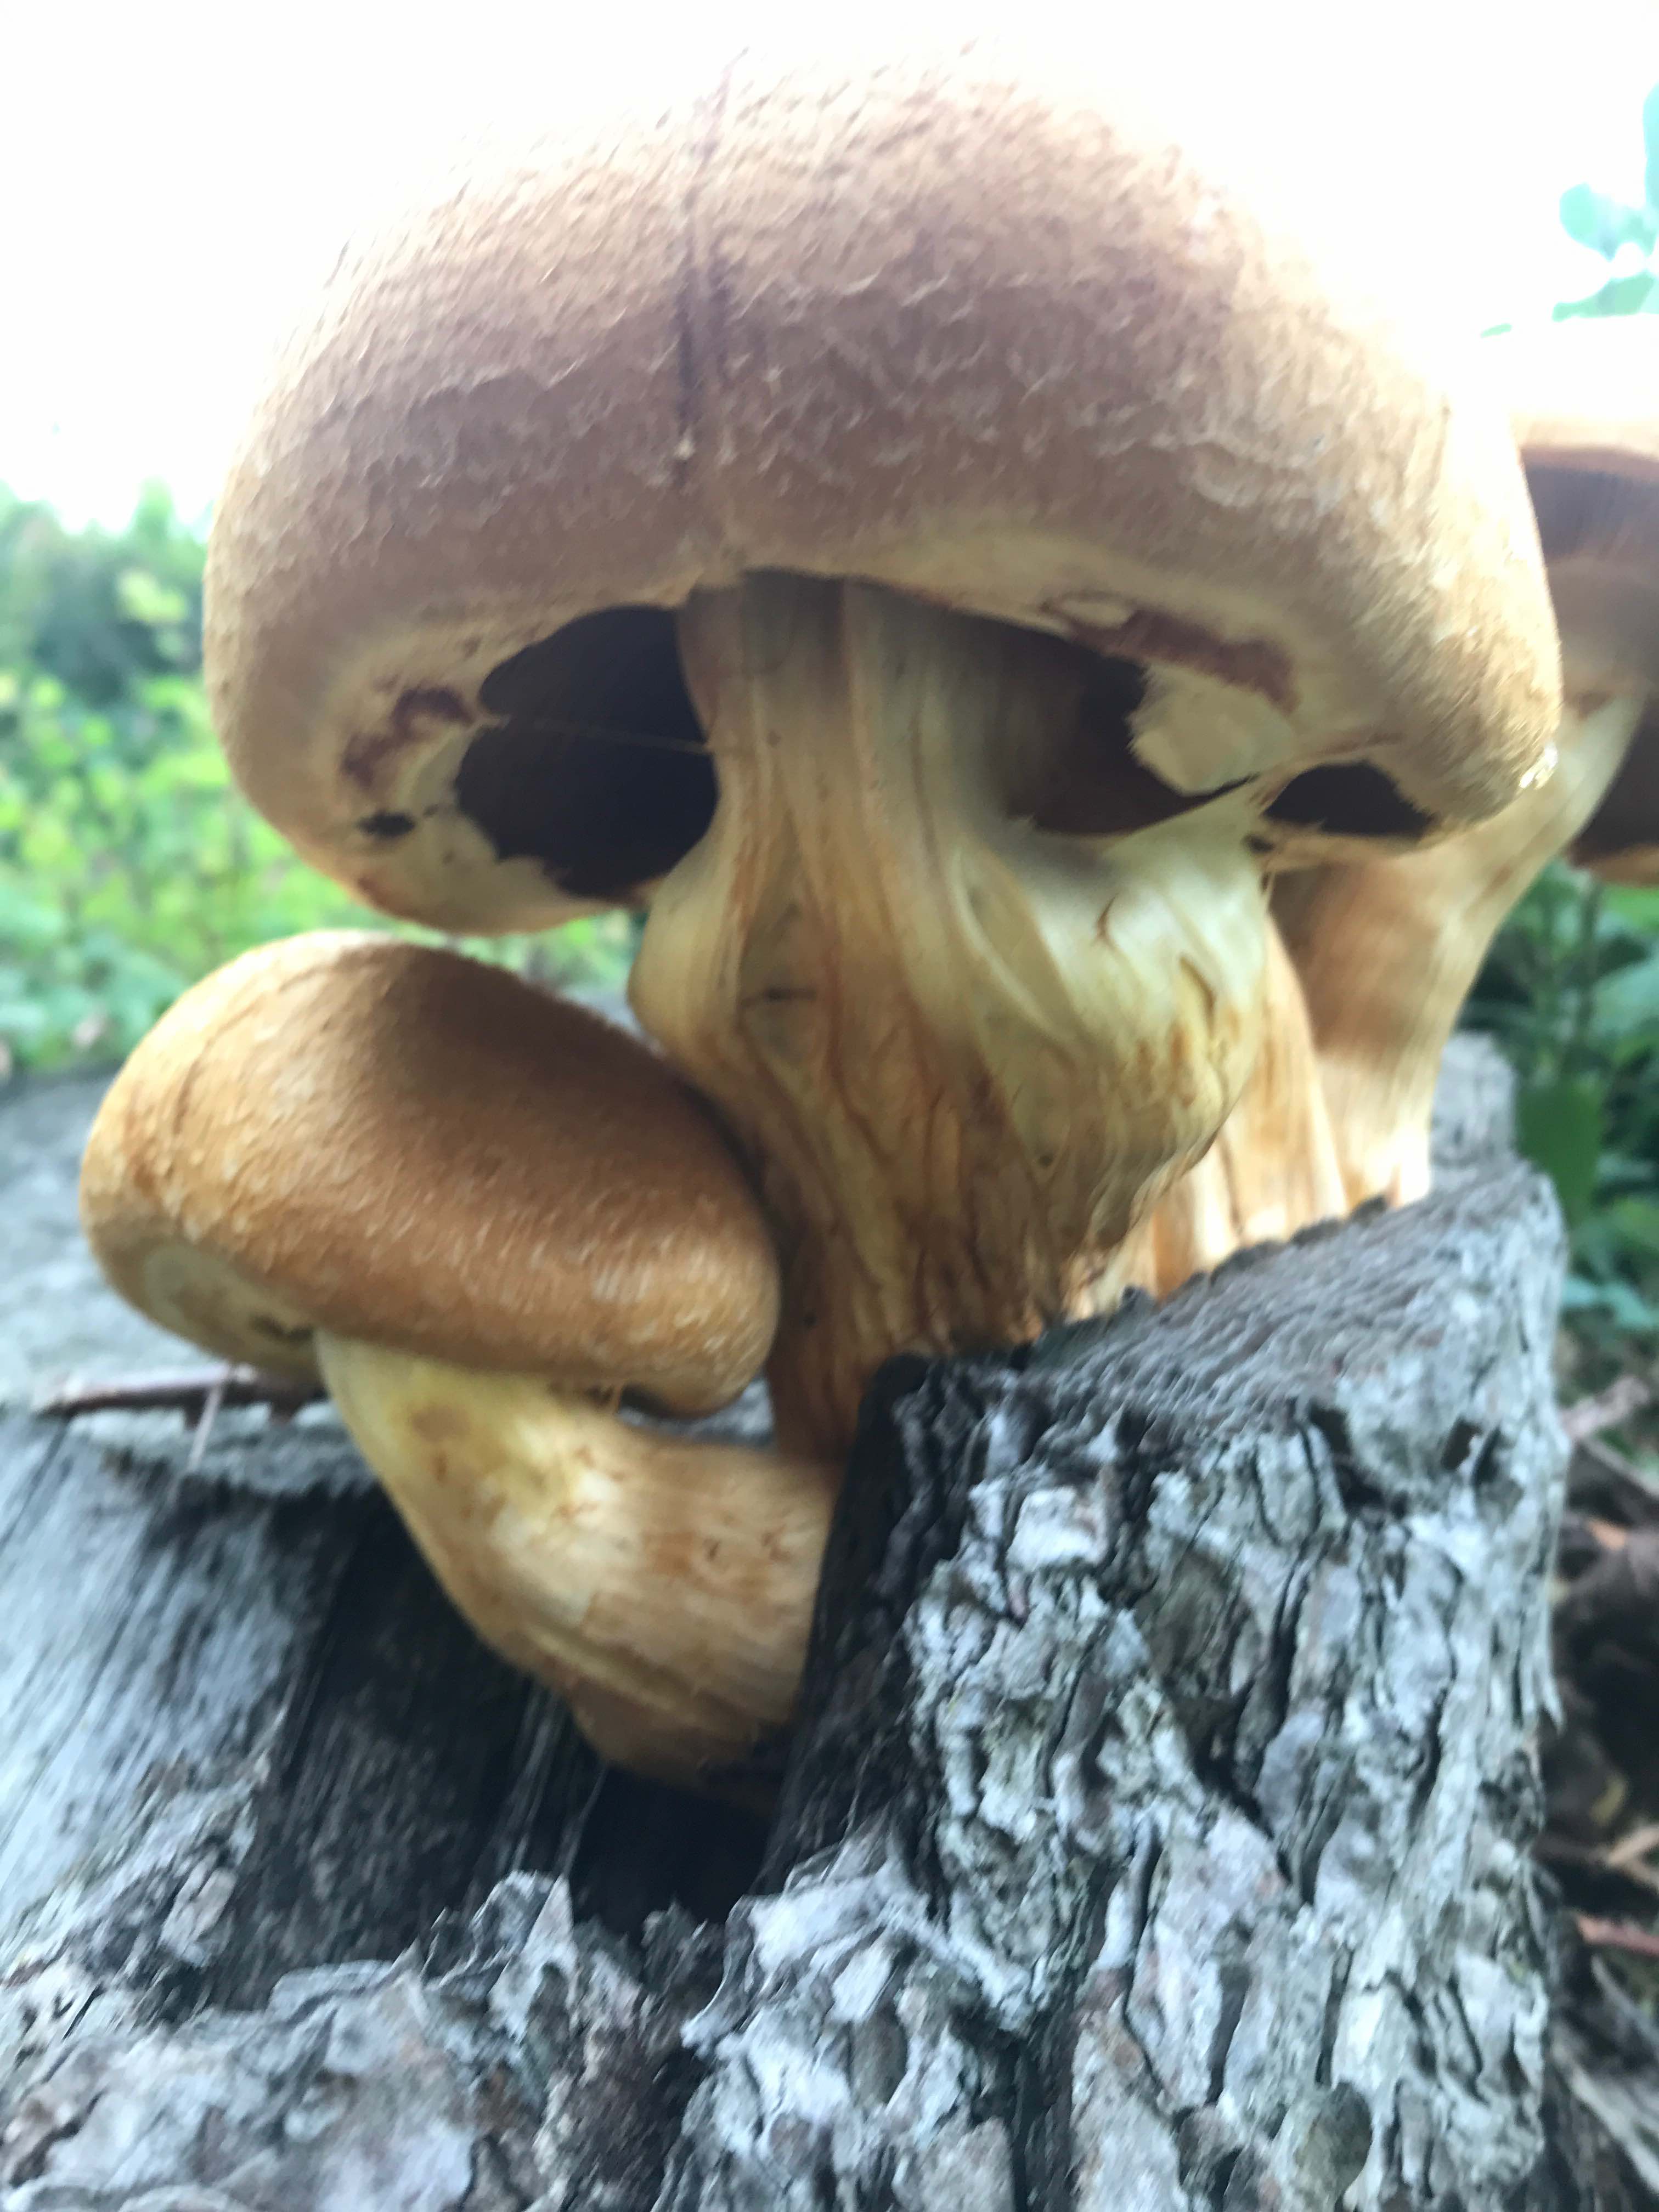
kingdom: Fungi
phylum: Basidiomycota
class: Agaricomycetes
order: Agaricales
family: Hymenogastraceae
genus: Gymnopilus
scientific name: Gymnopilus spectabilis
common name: fibret flammehat
